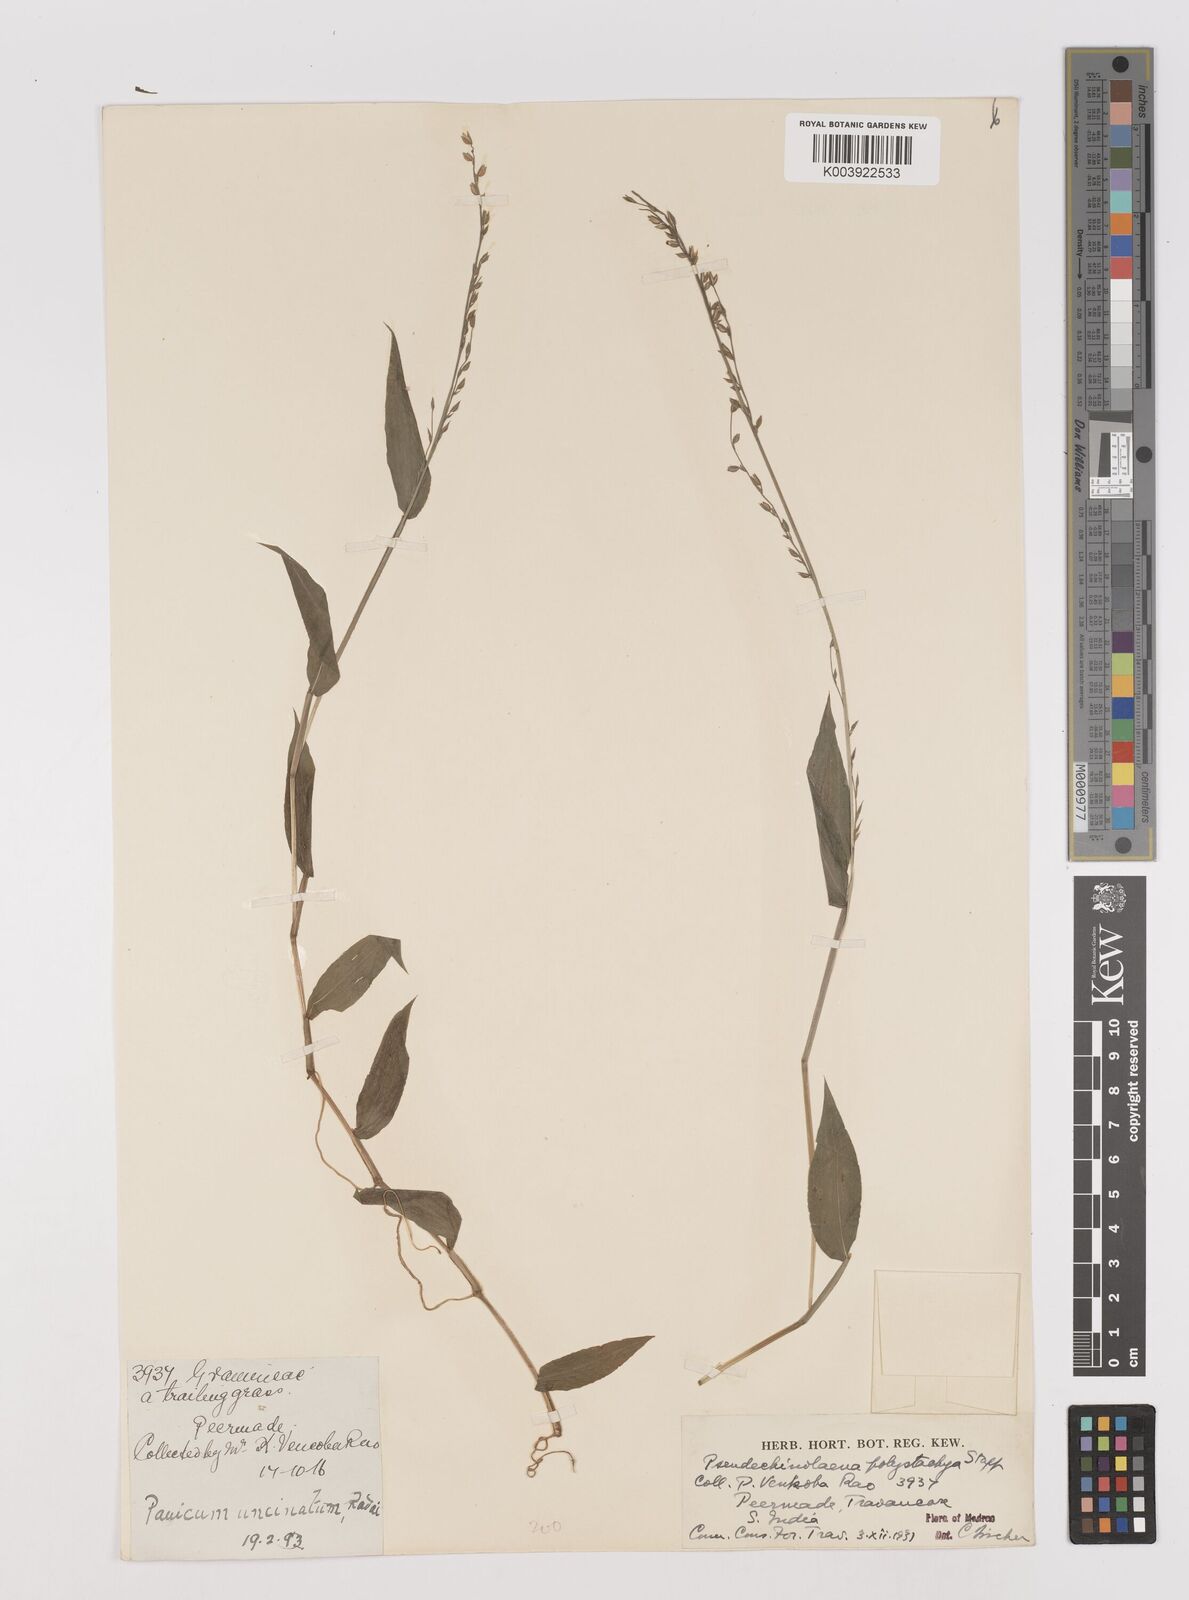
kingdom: Plantae
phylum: Tracheophyta
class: Liliopsida
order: Poales
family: Poaceae
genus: Pseudechinolaena
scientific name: Pseudechinolaena polystachya
